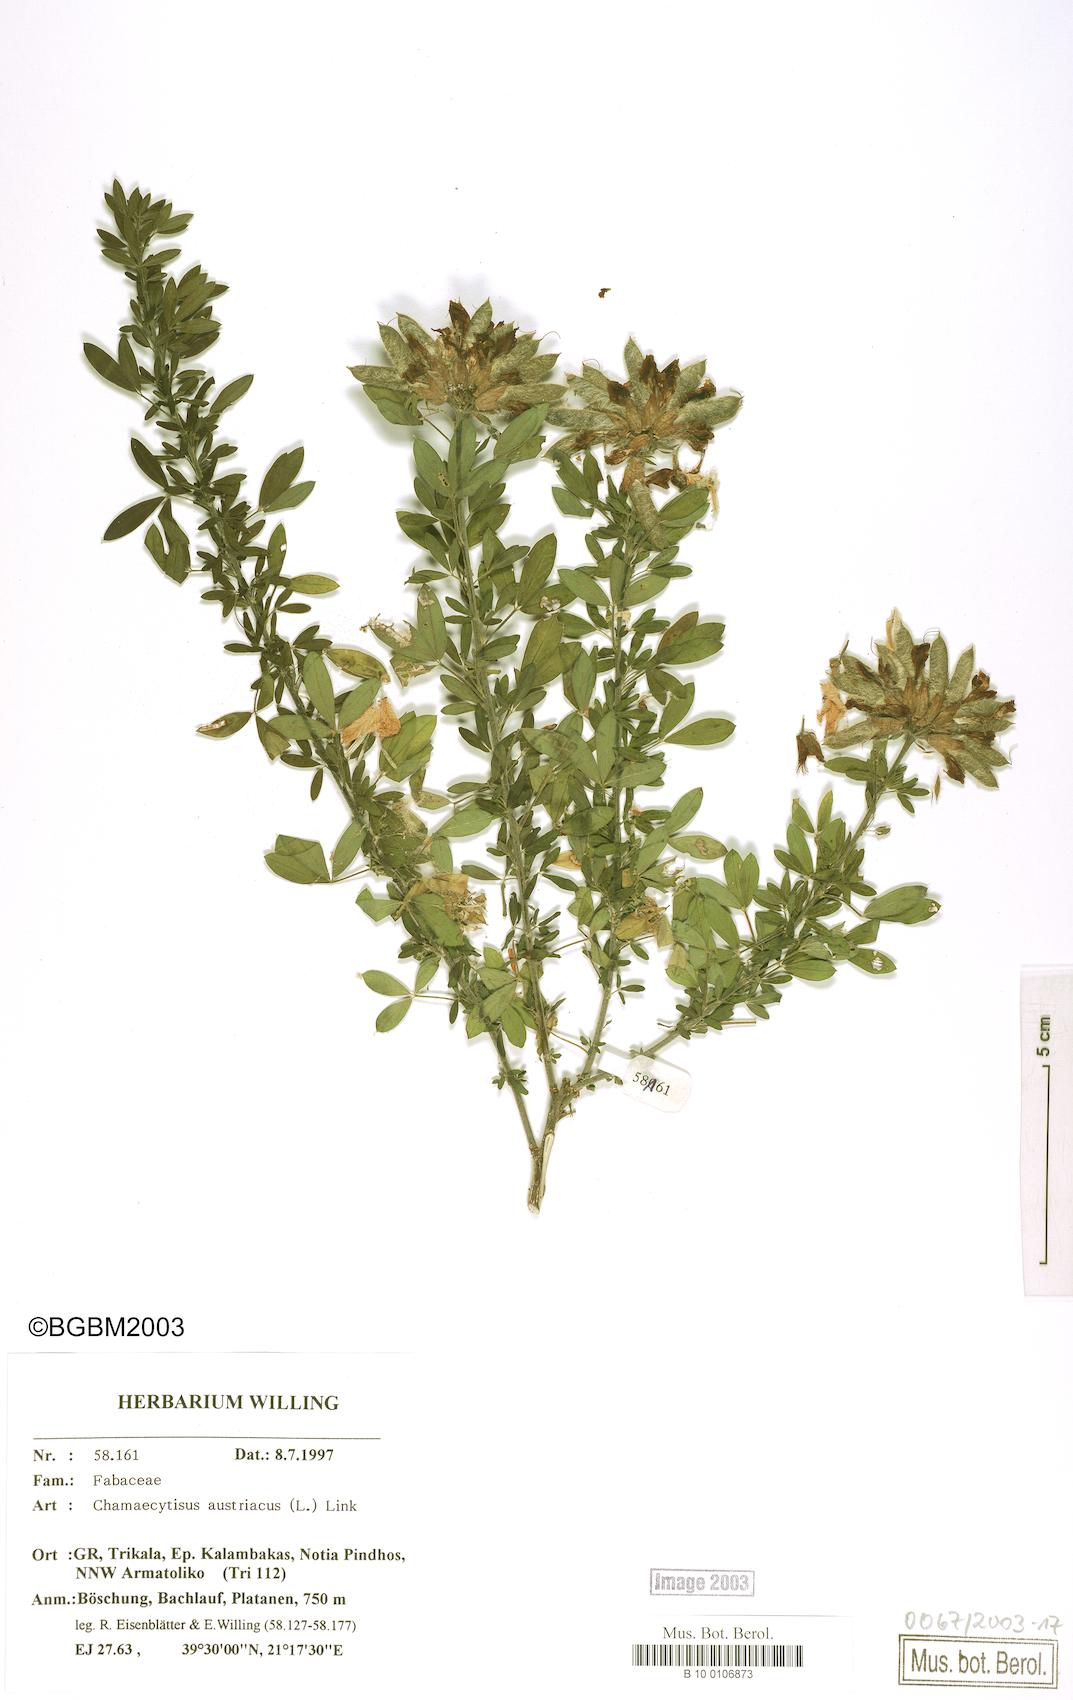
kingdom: Plantae
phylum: Tracheophyta
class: Magnoliopsida
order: Fabales
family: Fabaceae
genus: Chamaecytisus
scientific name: Chamaecytisus austriacus
